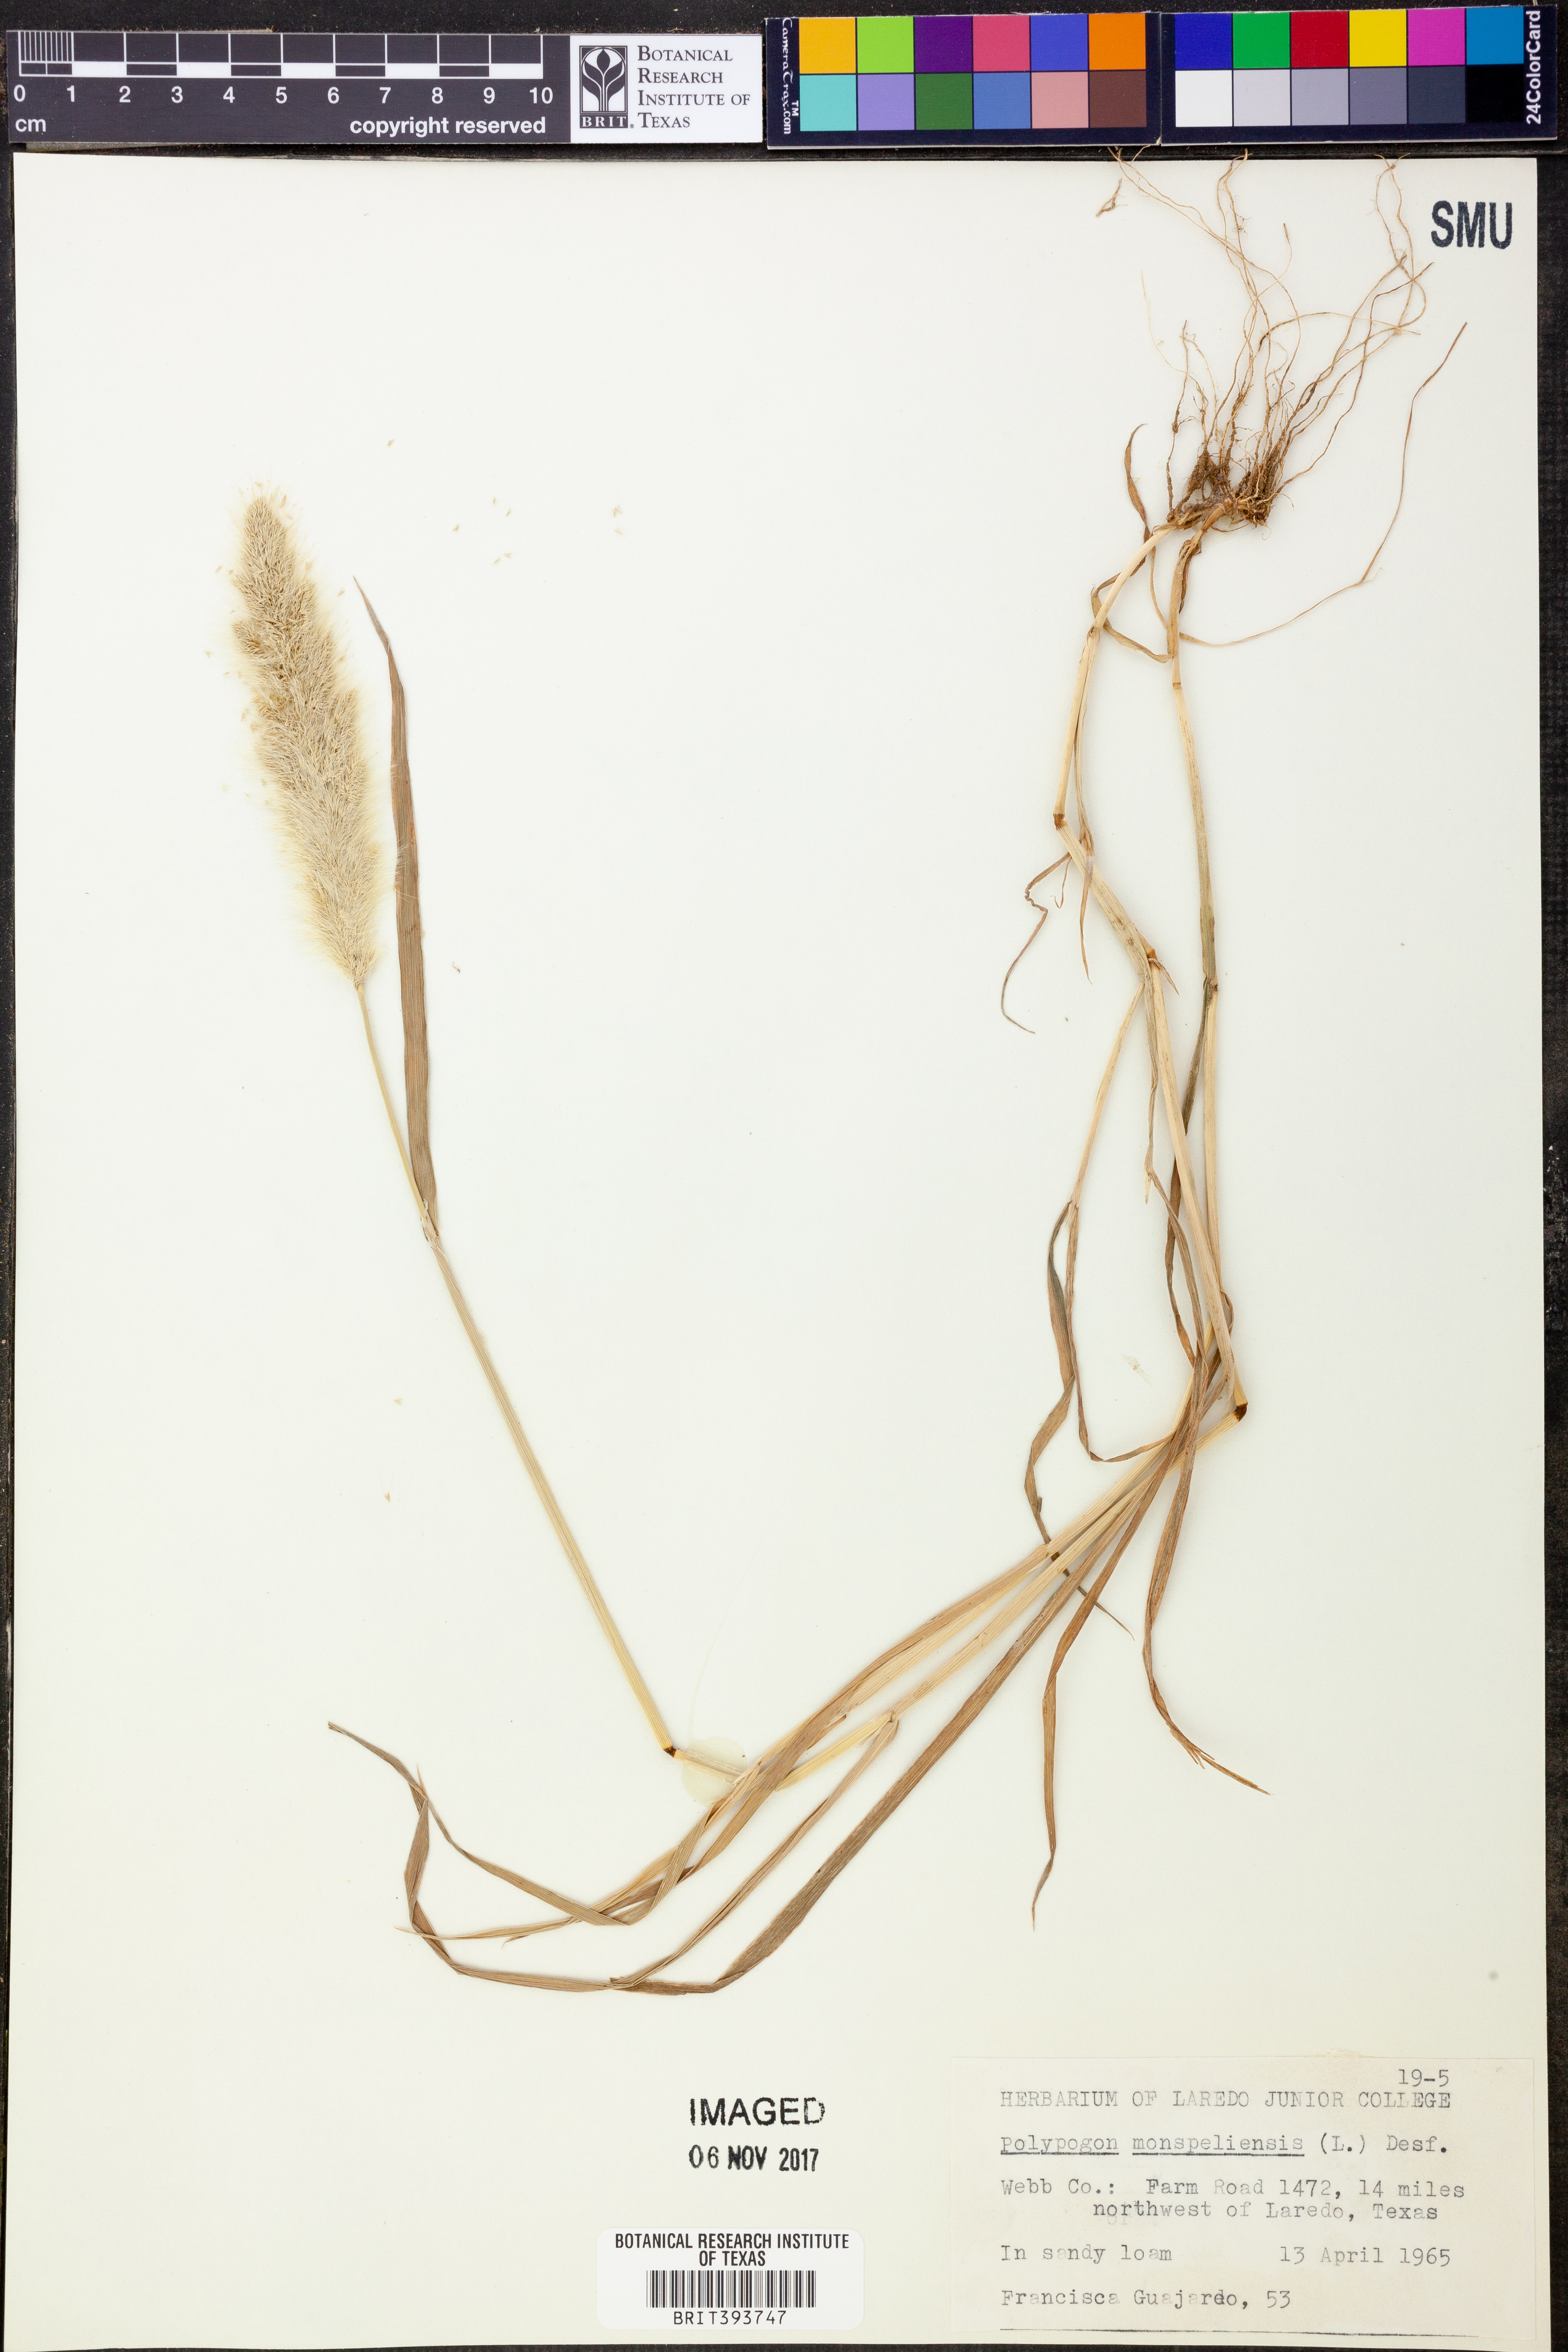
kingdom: Plantae
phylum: Tracheophyta
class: Liliopsida
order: Poales
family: Poaceae
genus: Polypogon
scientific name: Polypogon monspeliensis
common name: Annual rabbitsfoot grass
